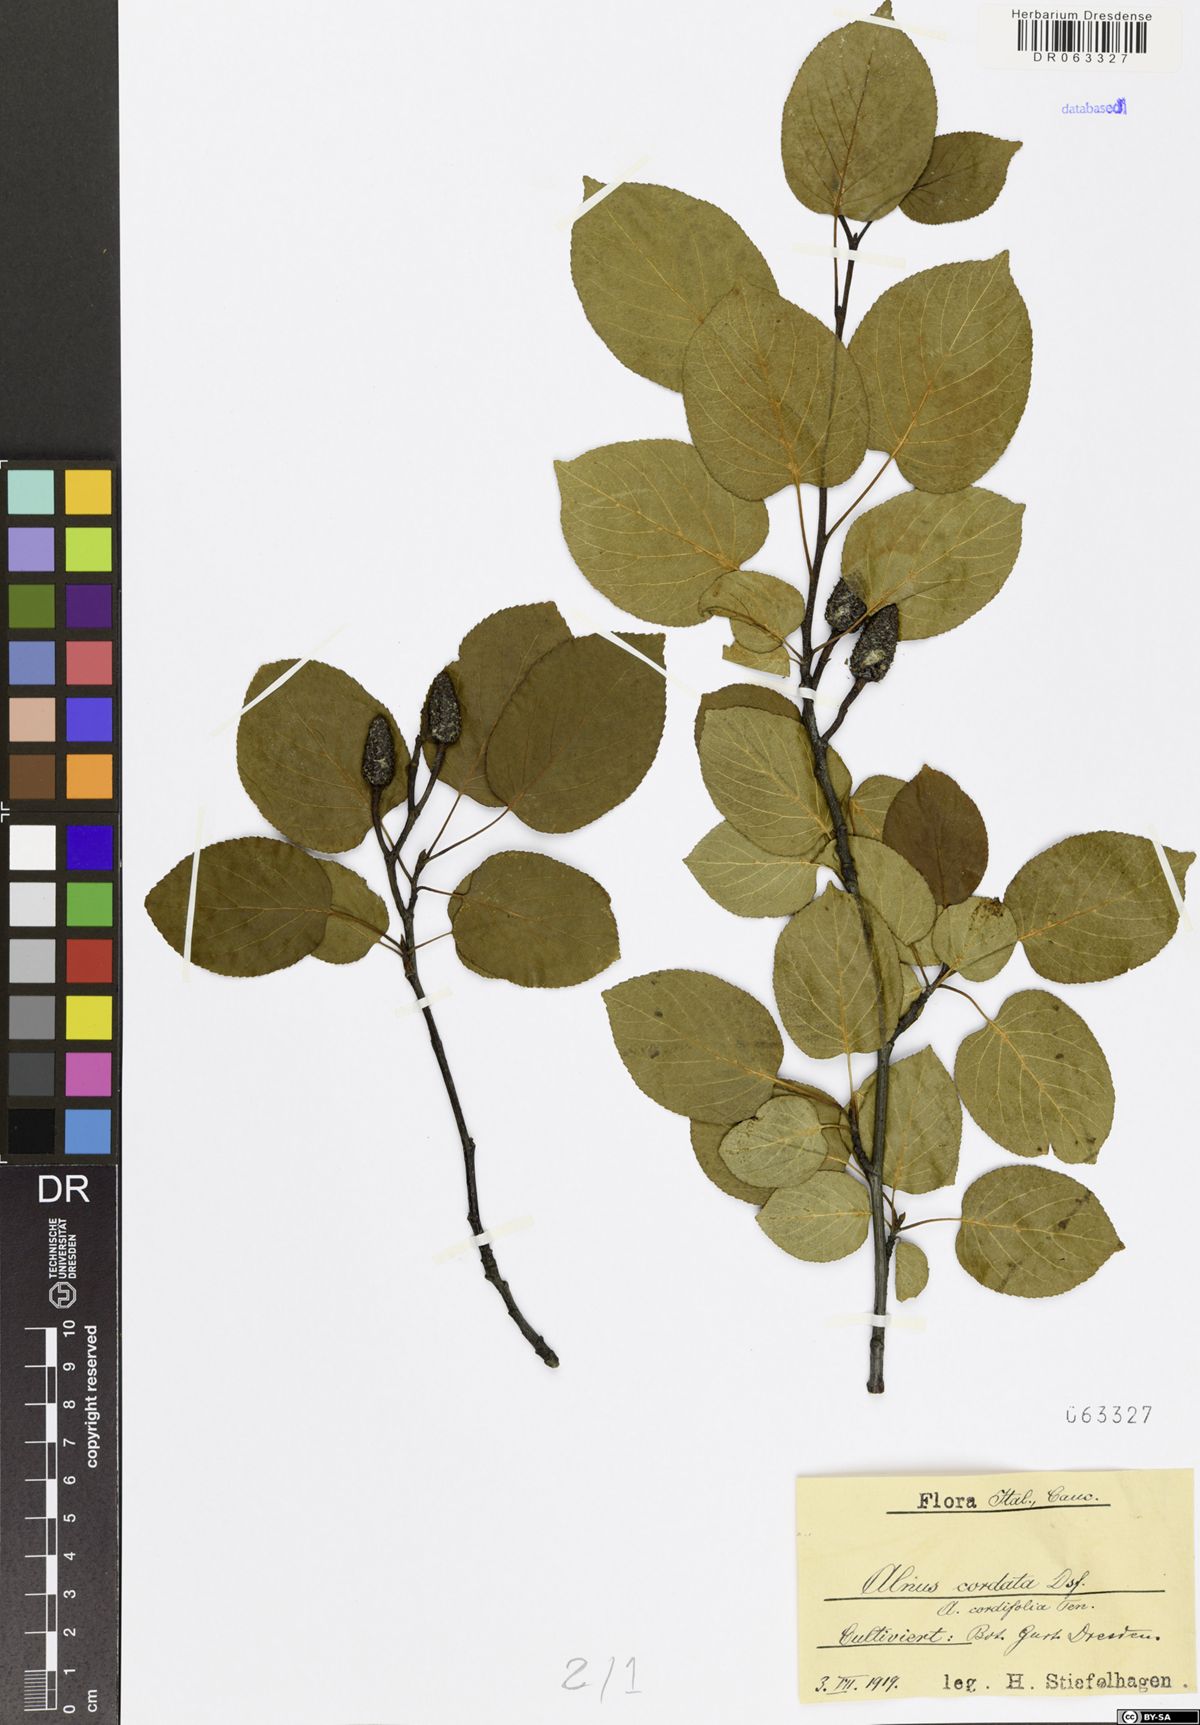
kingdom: Plantae
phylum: Tracheophyta
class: Magnoliopsida
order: Fagales
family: Betulaceae
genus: Alnus
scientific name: Alnus cordata
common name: Italian alder
